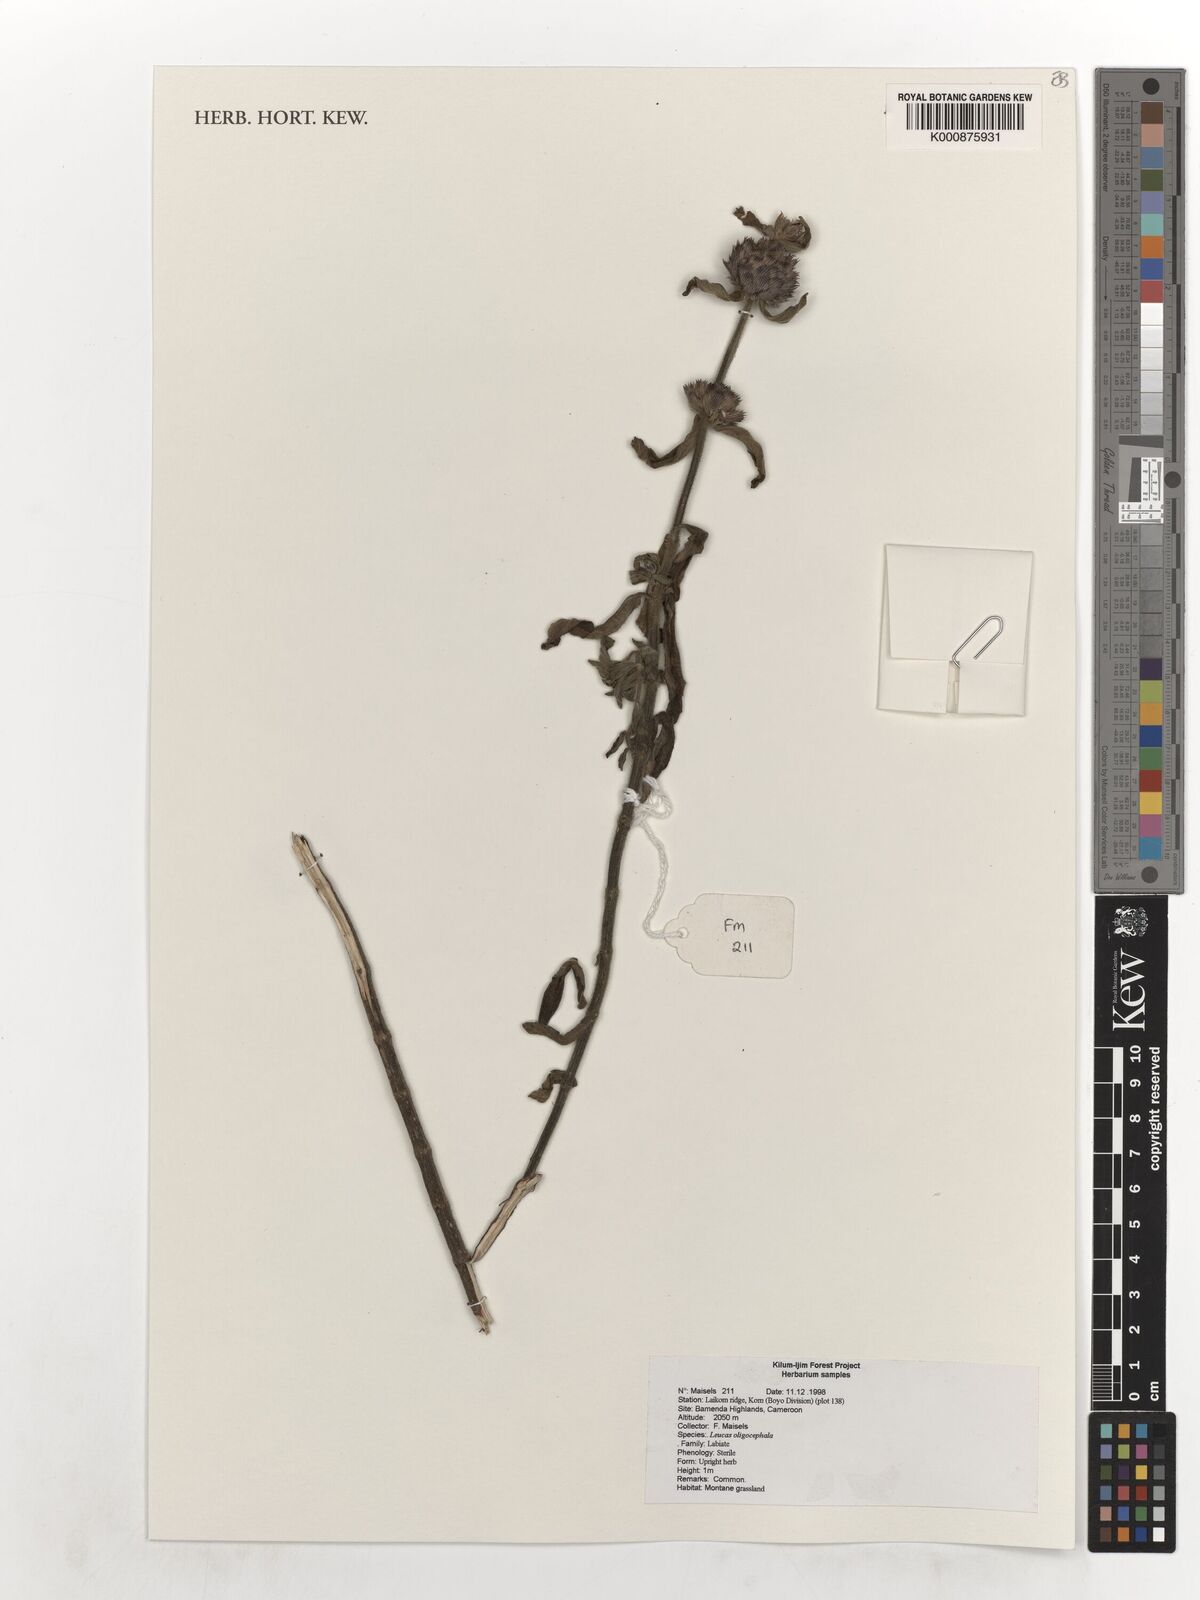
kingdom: Plantae
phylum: Tracheophyta
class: Magnoliopsida
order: Lamiales
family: Lamiaceae
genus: Leucas
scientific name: Leucas oligocephala
